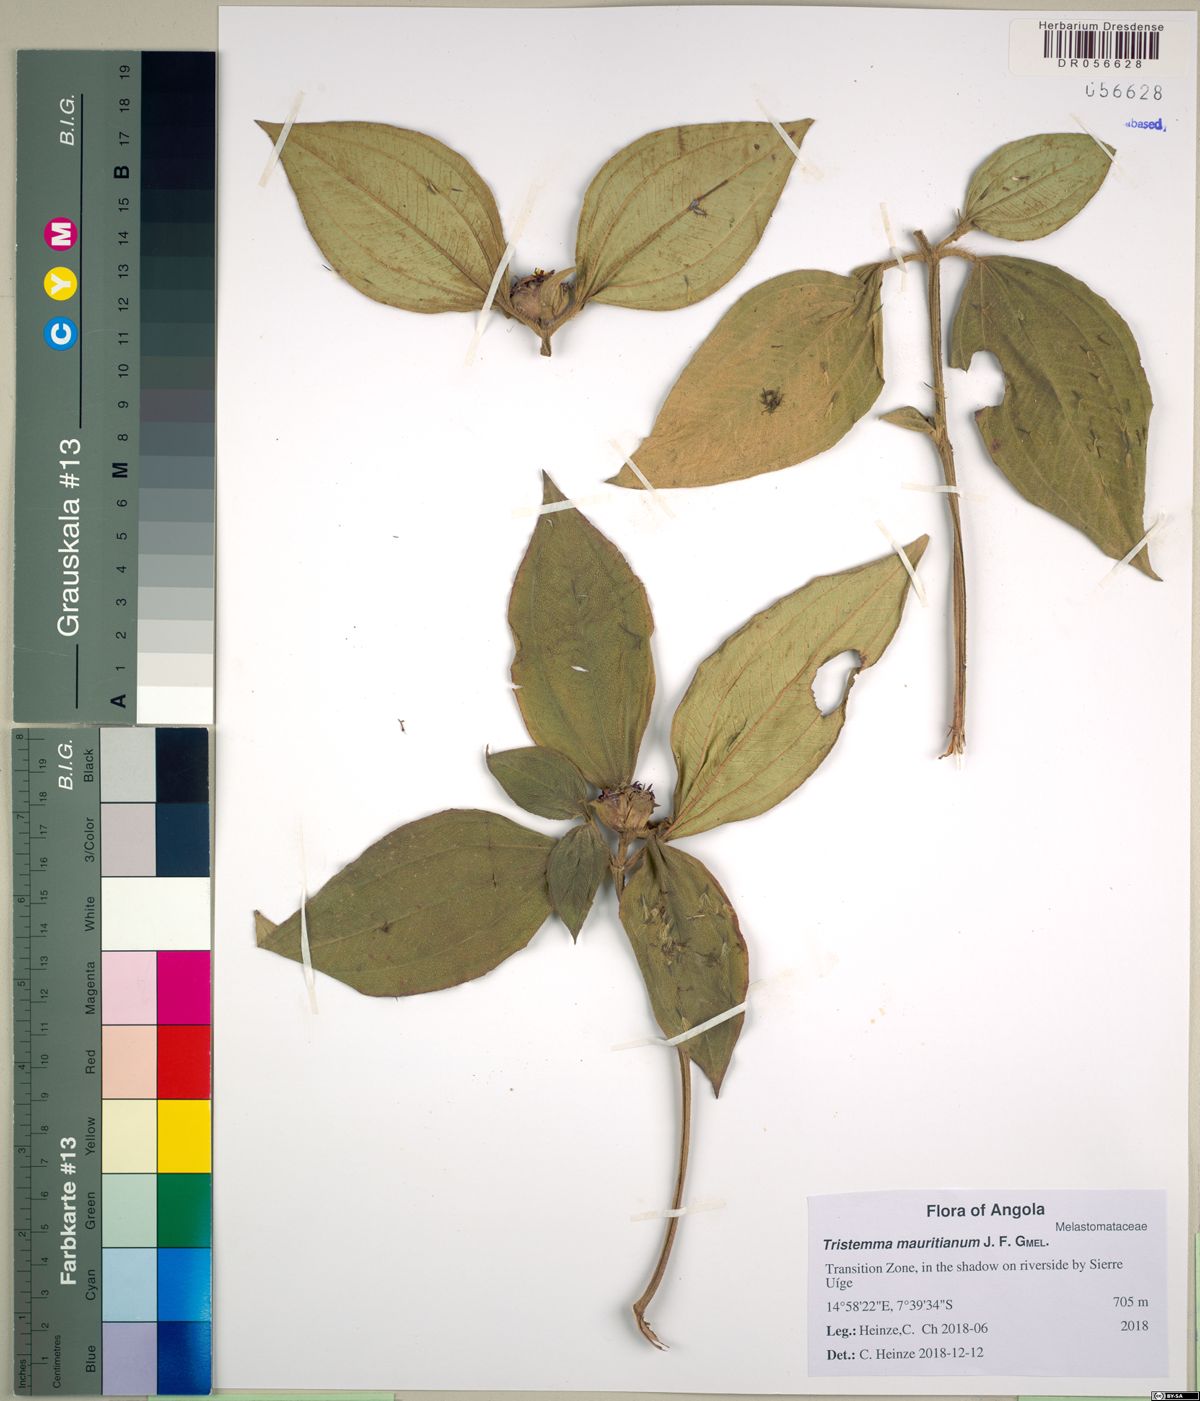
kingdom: Plantae
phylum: Tracheophyta
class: Magnoliopsida
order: Myrtales
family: Melastomataceae
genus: Tristemma
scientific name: Tristemma mauritianum
